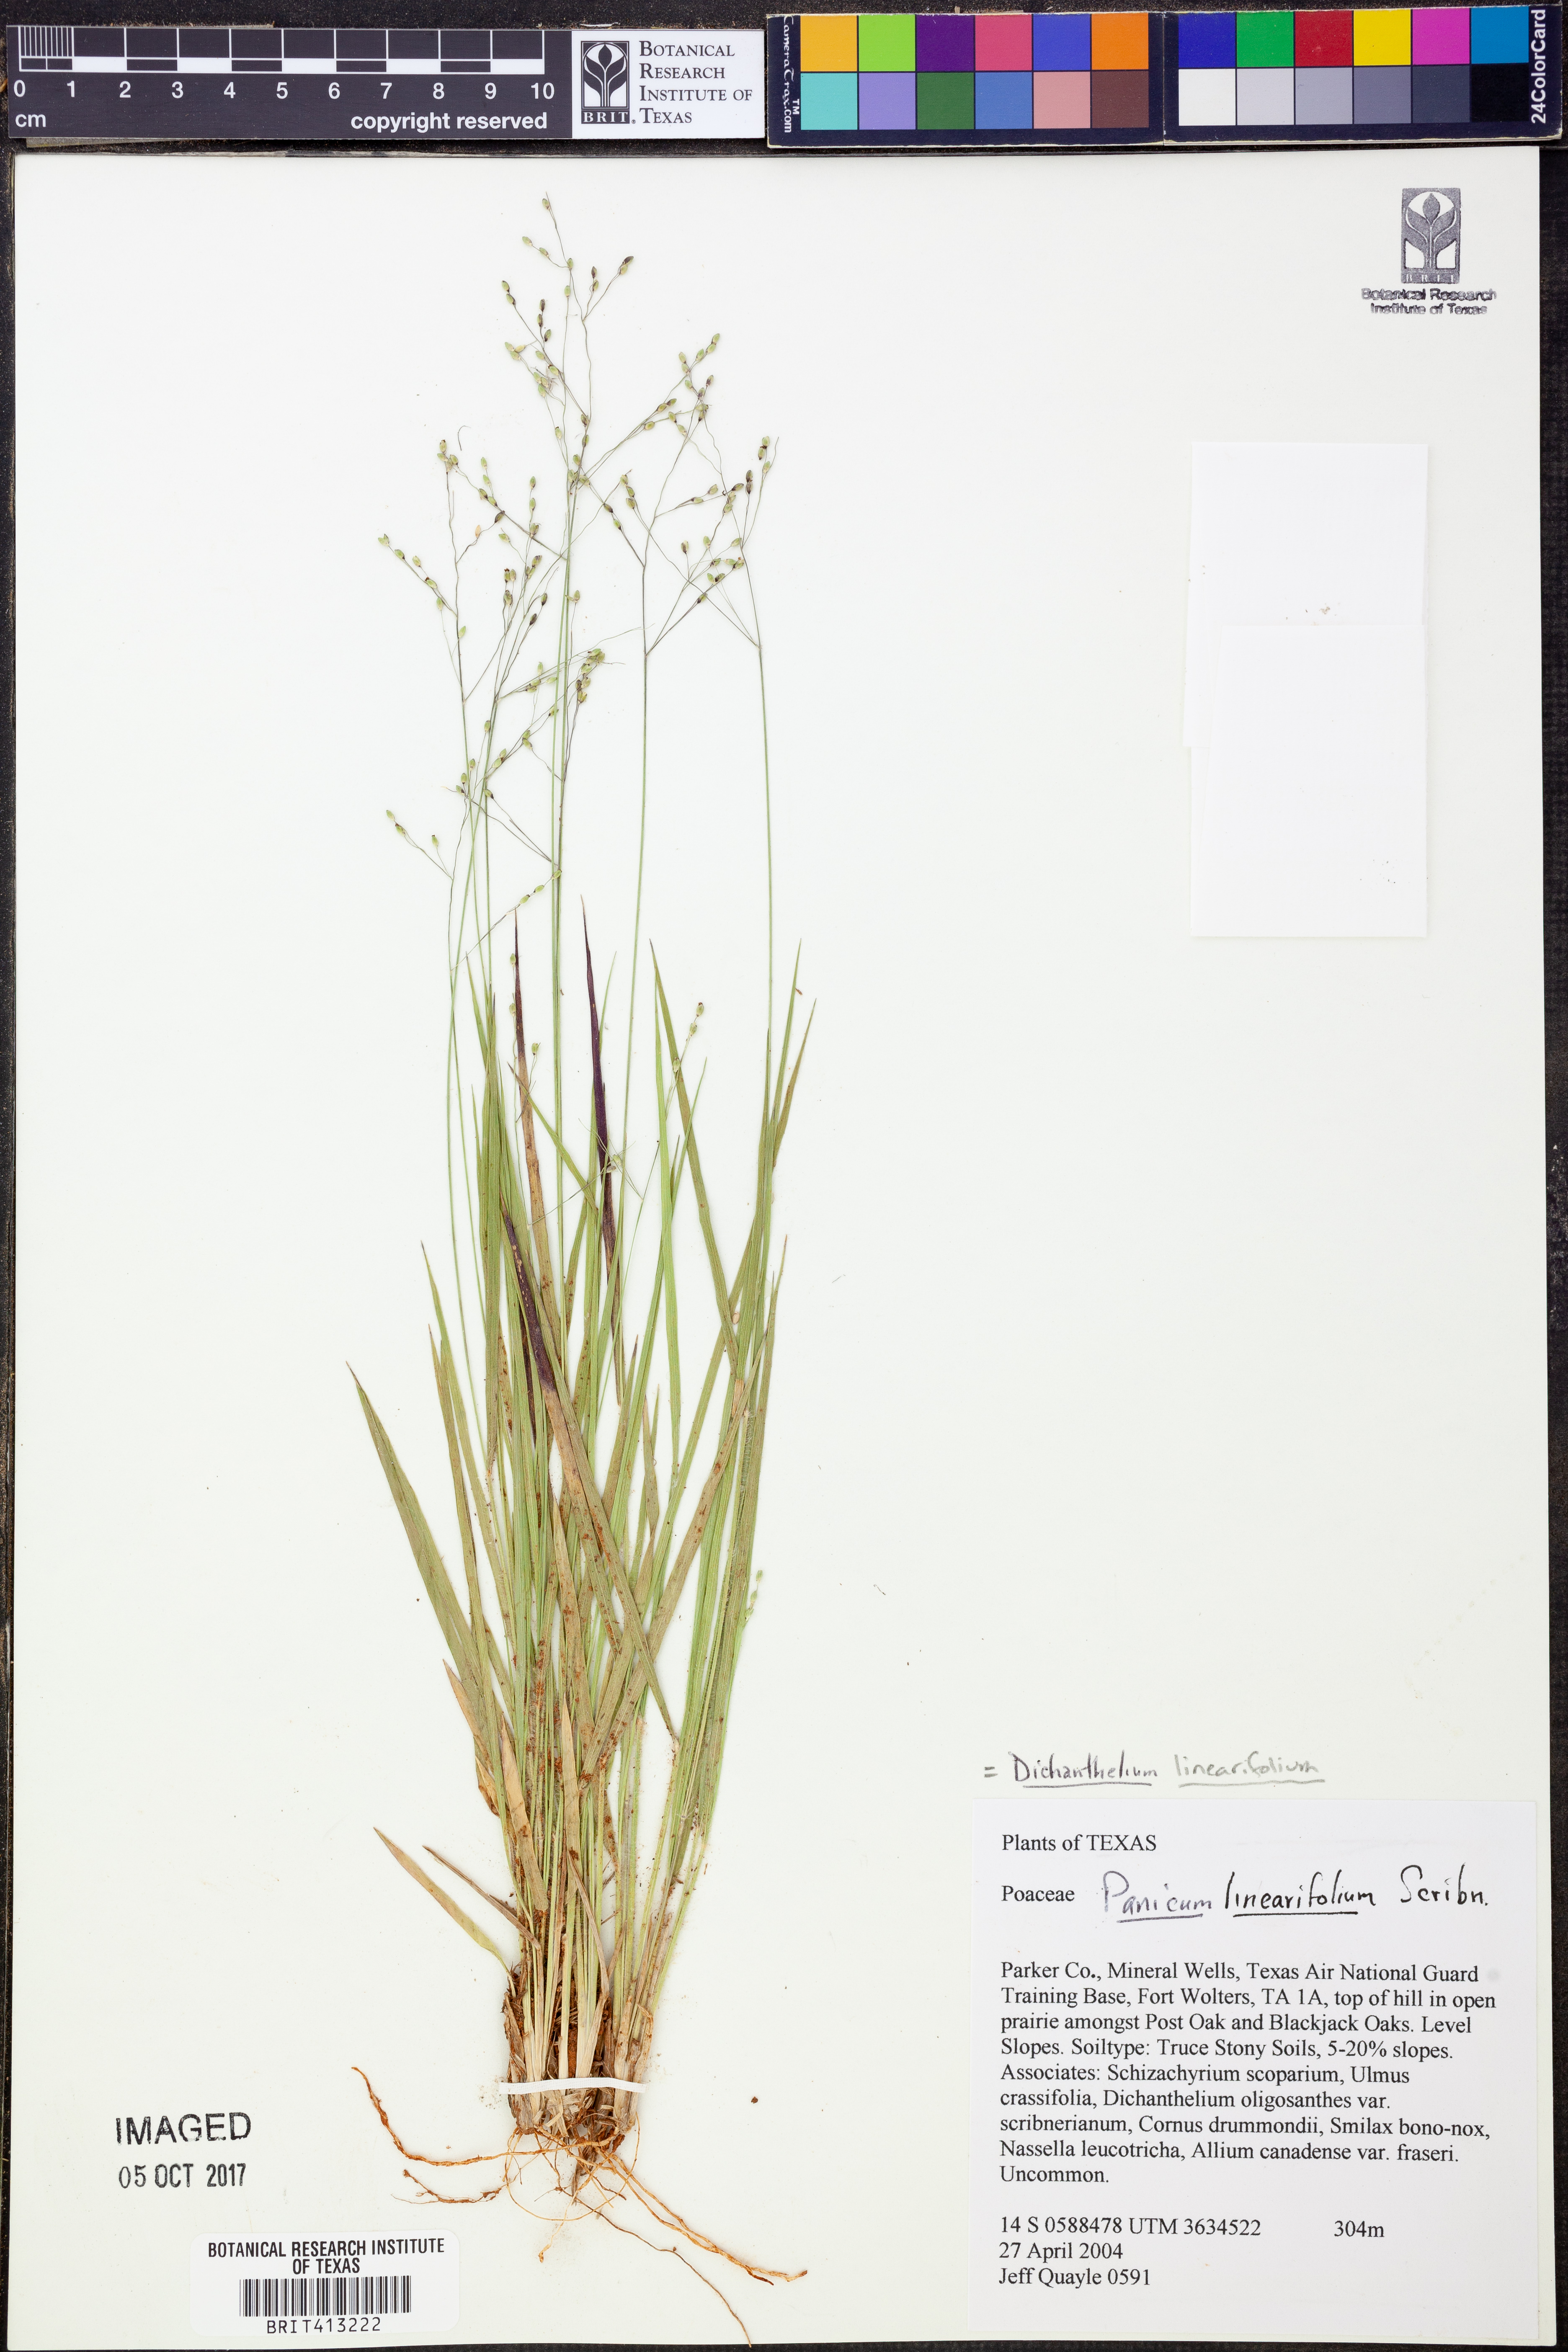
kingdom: Plantae
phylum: Tracheophyta
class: Liliopsida
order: Poales
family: Poaceae
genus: Dichanthelium
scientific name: Dichanthelium linearifolium
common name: Linear-leaved panicgrass
